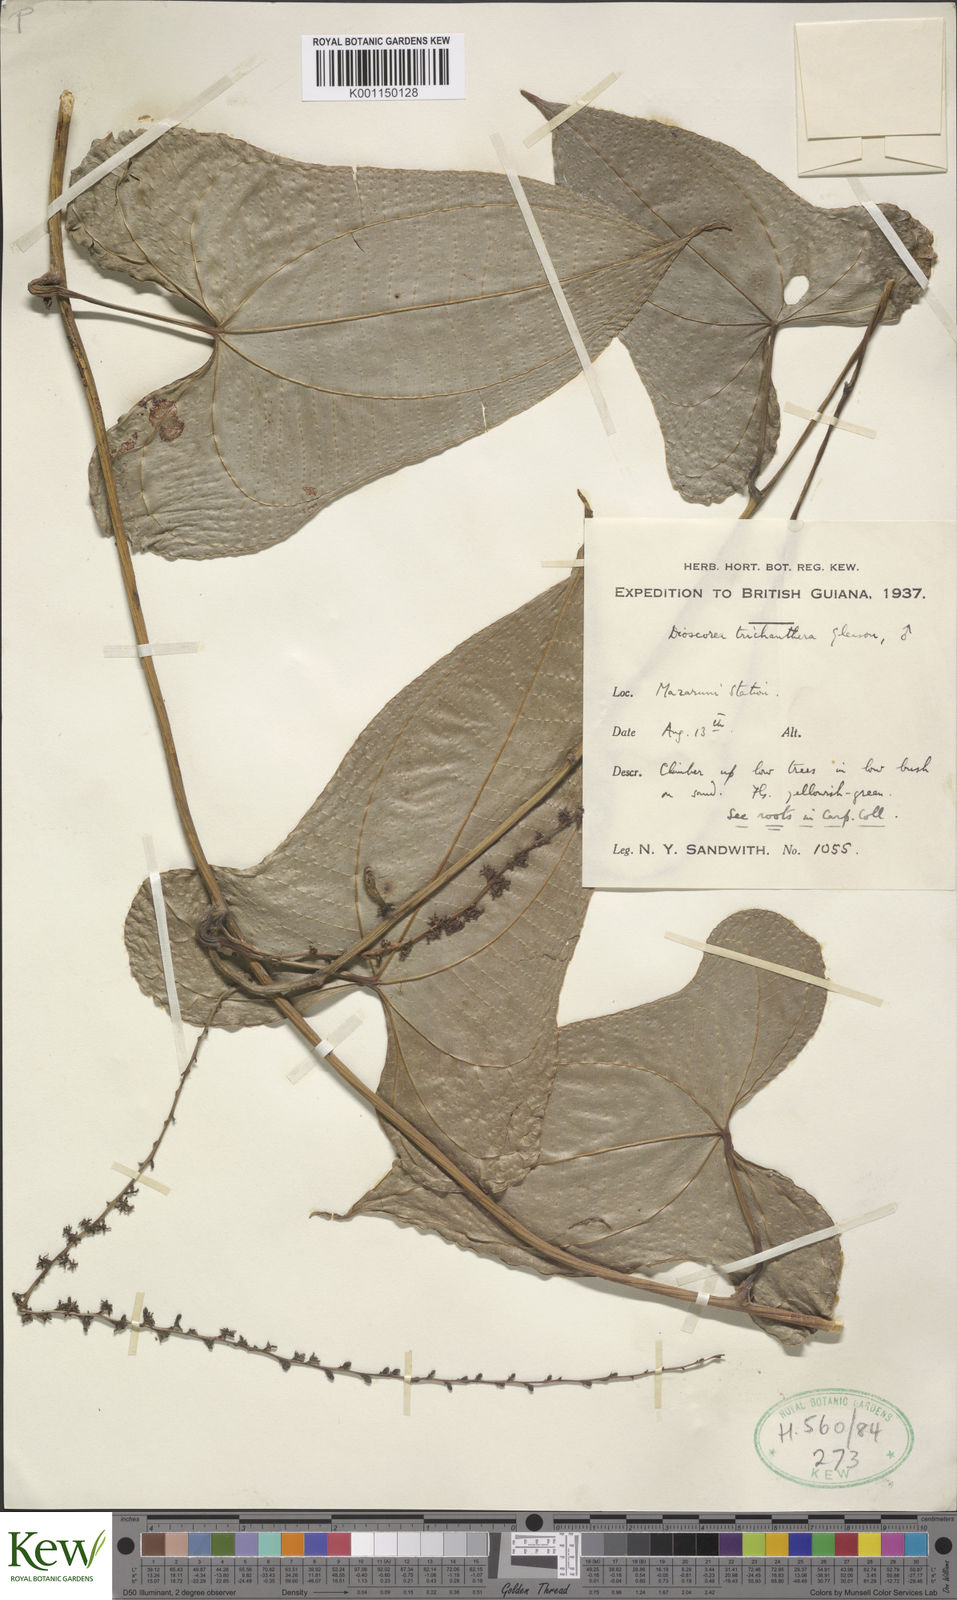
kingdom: Plantae
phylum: Tracheophyta
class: Liliopsida
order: Dioscoreales
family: Dioscoreaceae
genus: Dioscorea
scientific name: Dioscorea trichanthera
